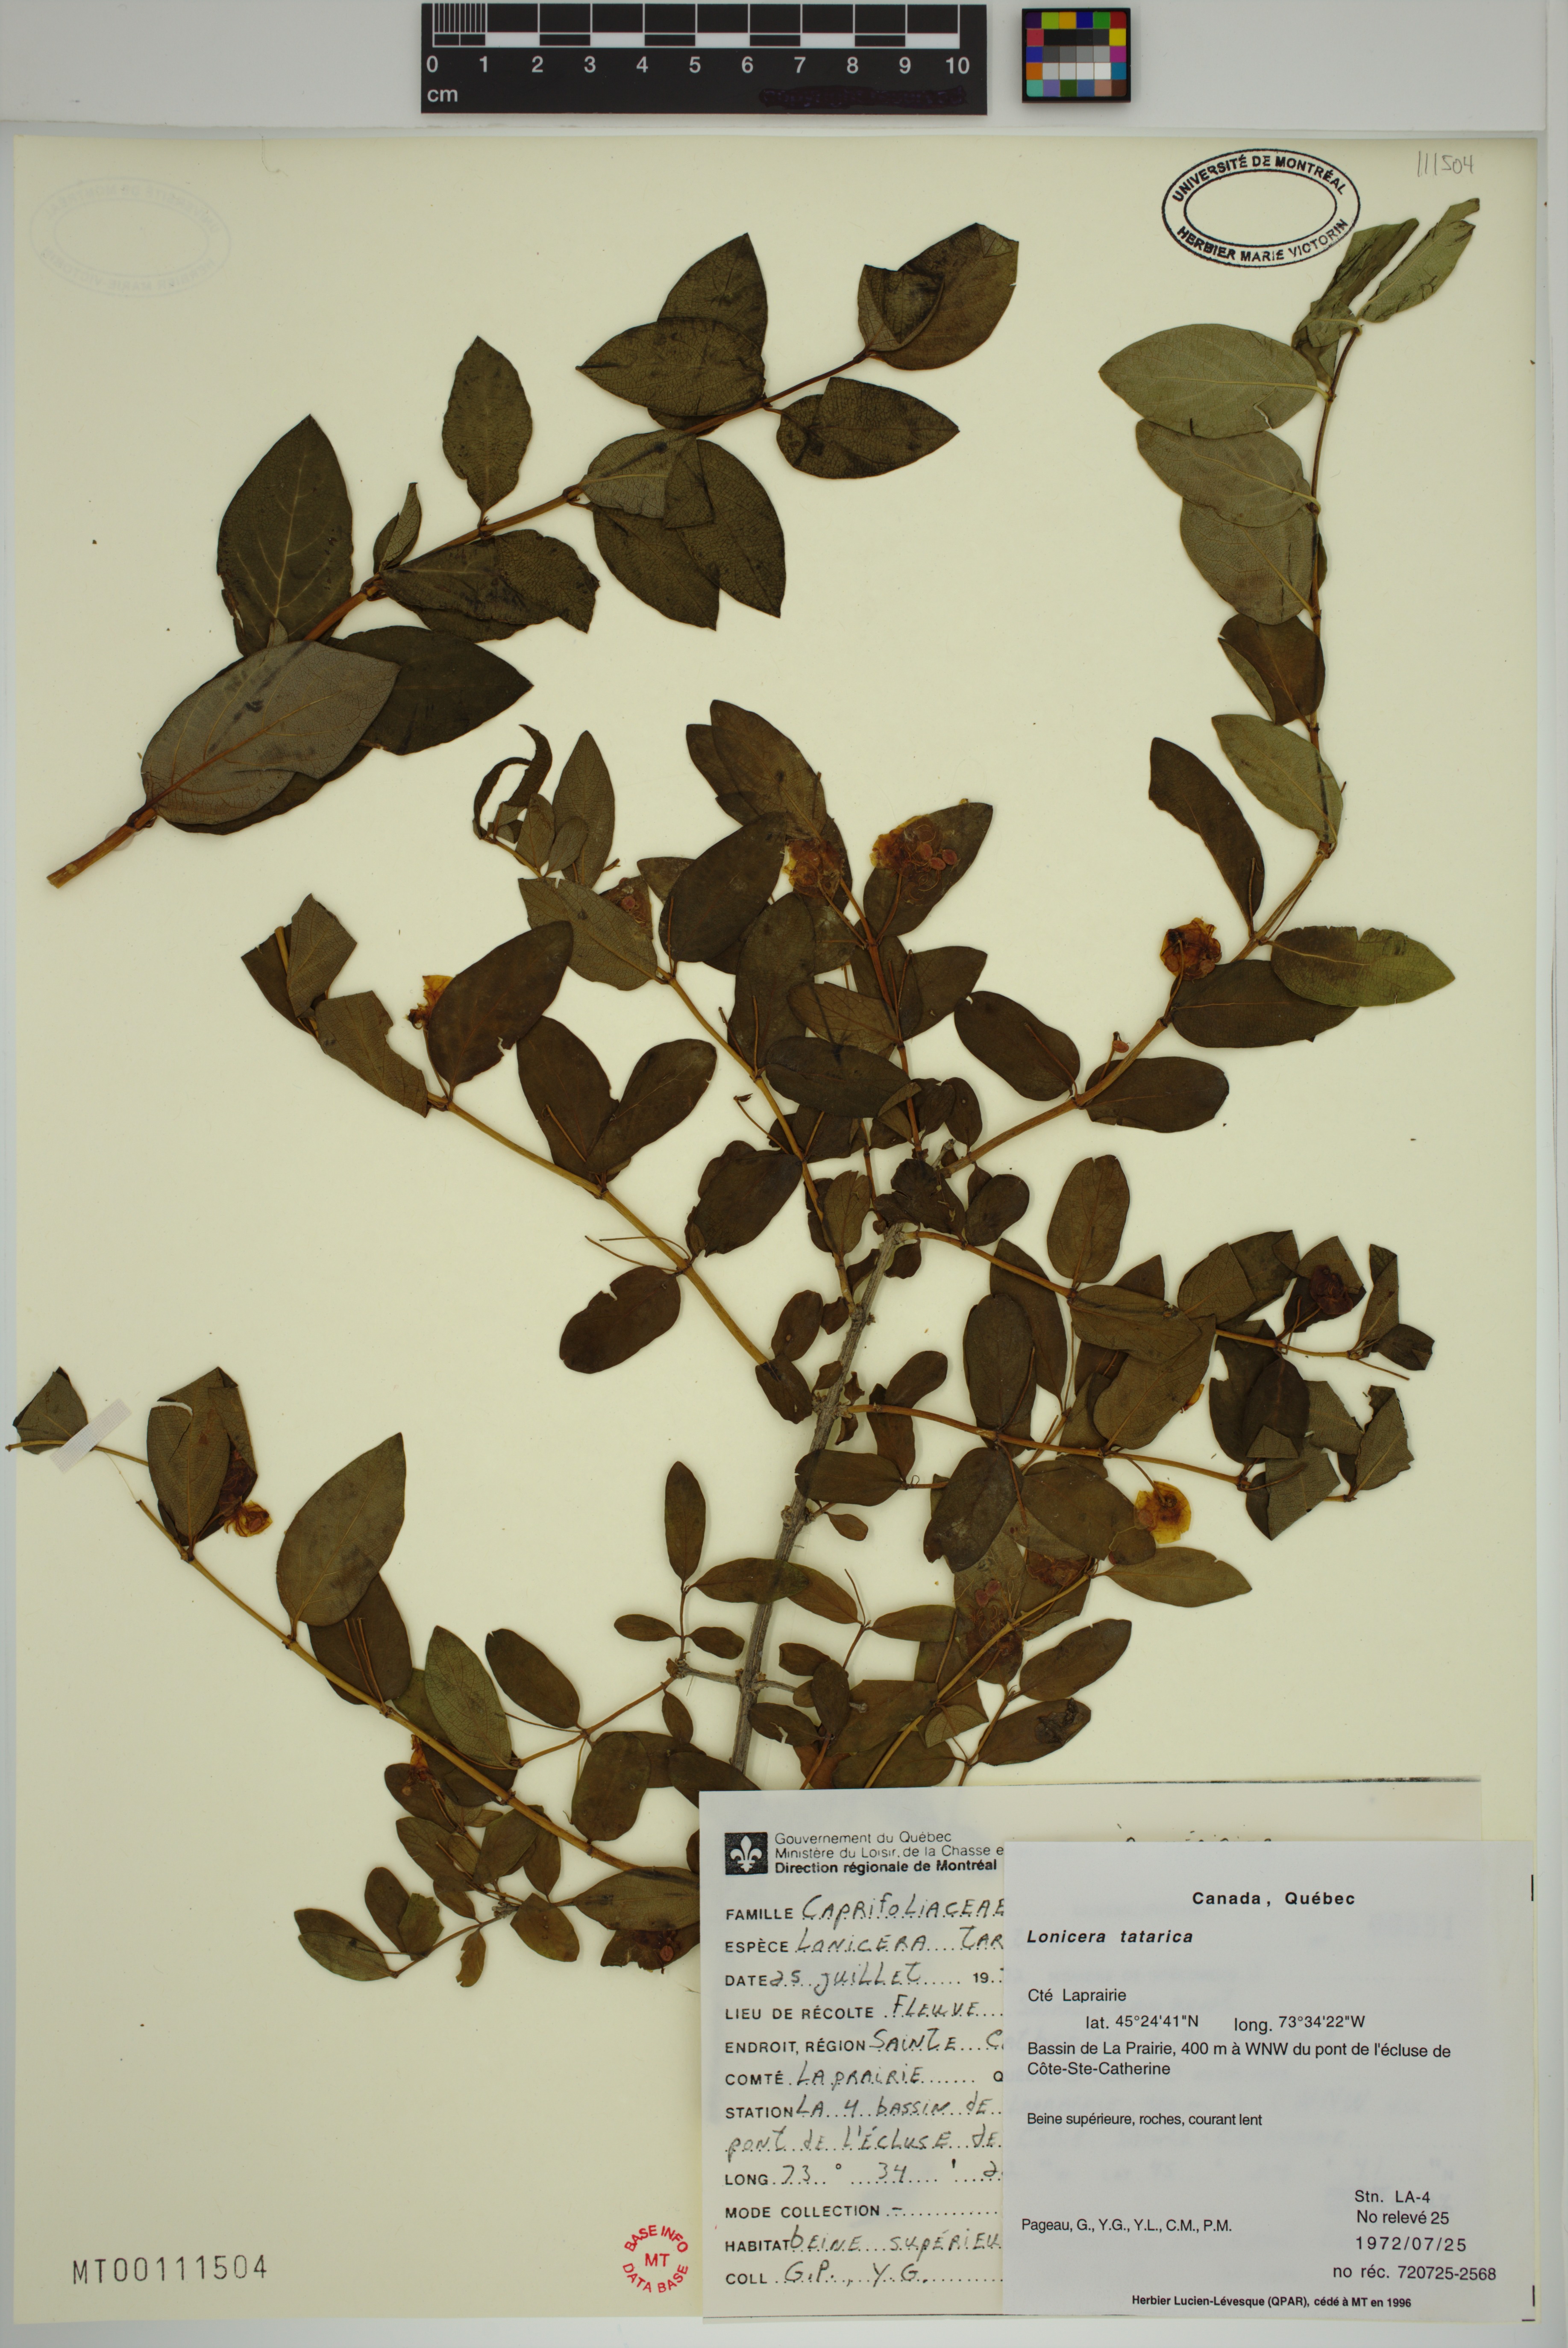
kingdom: Plantae
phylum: Tracheophyta
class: Magnoliopsida
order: Dipsacales
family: Caprifoliaceae
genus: Lonicera
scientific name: Lonicera tatarica
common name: Tatarian honeysuckle
